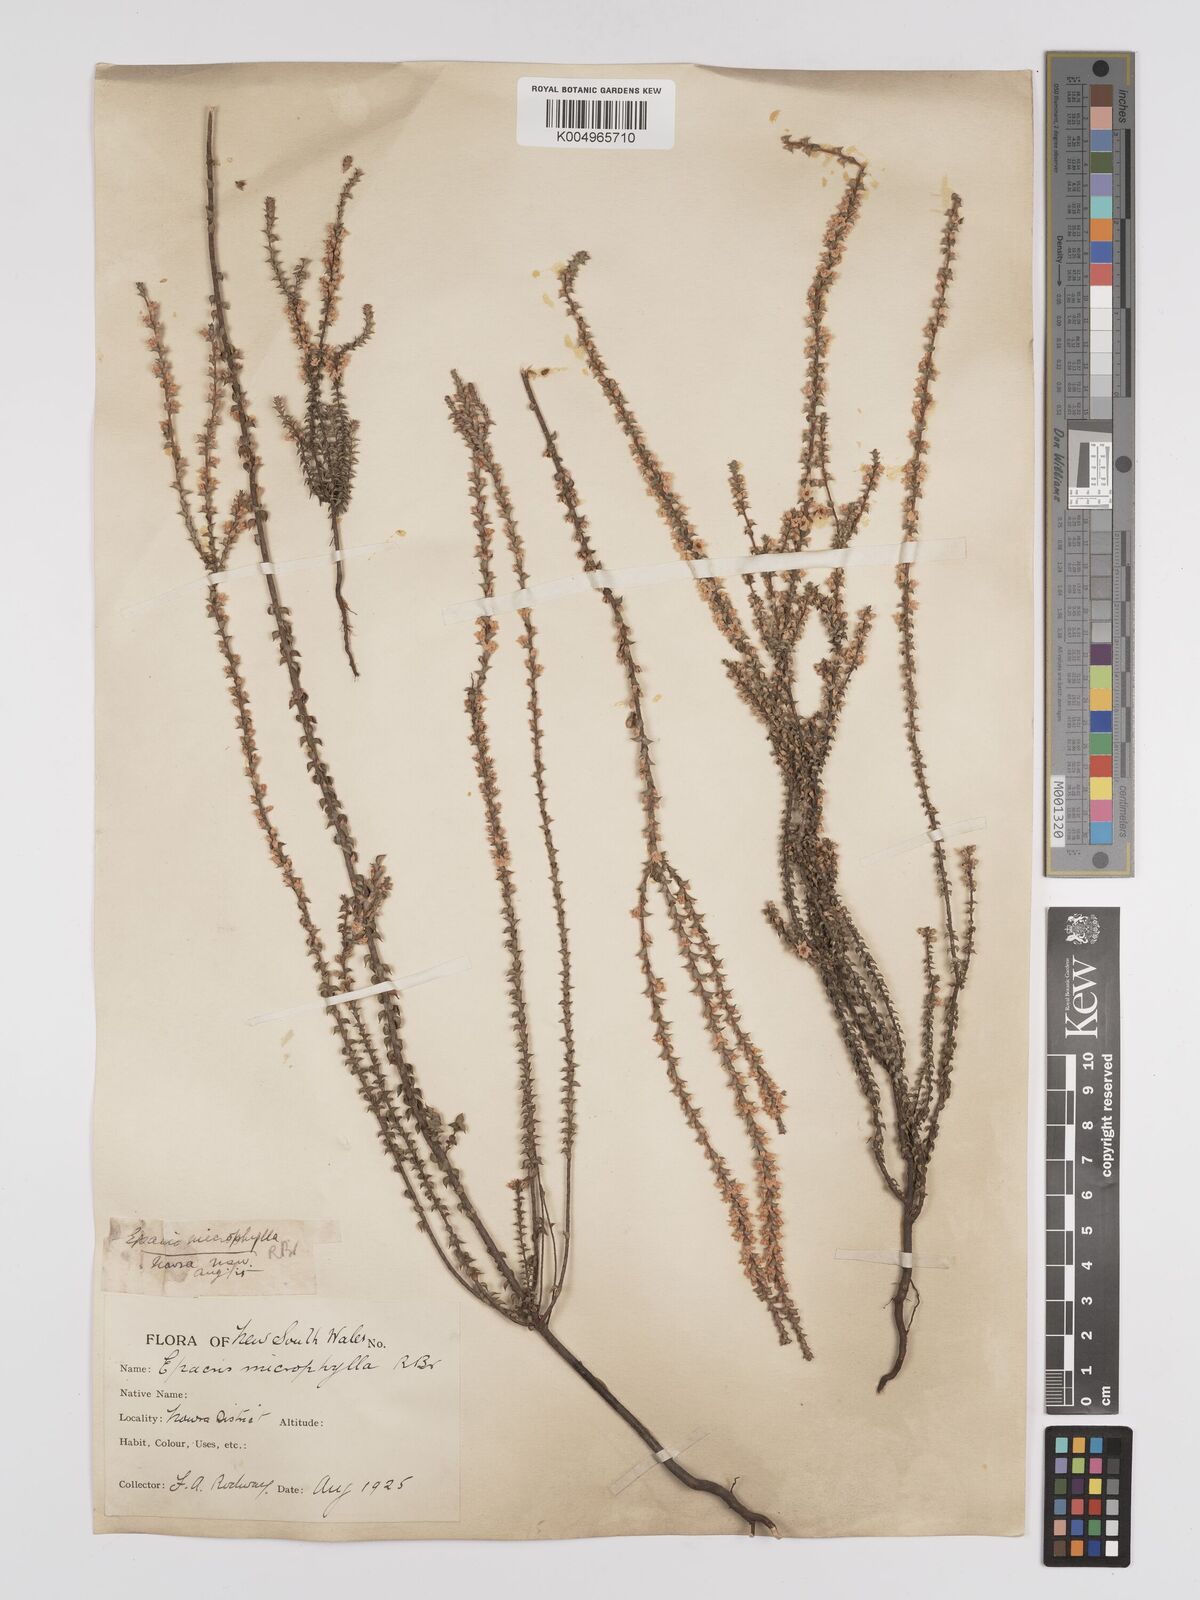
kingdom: Plantae
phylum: Tracheophyta
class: Magnoliopsida
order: Ericales
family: Ericaceae
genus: Epacris
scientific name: Epacris
